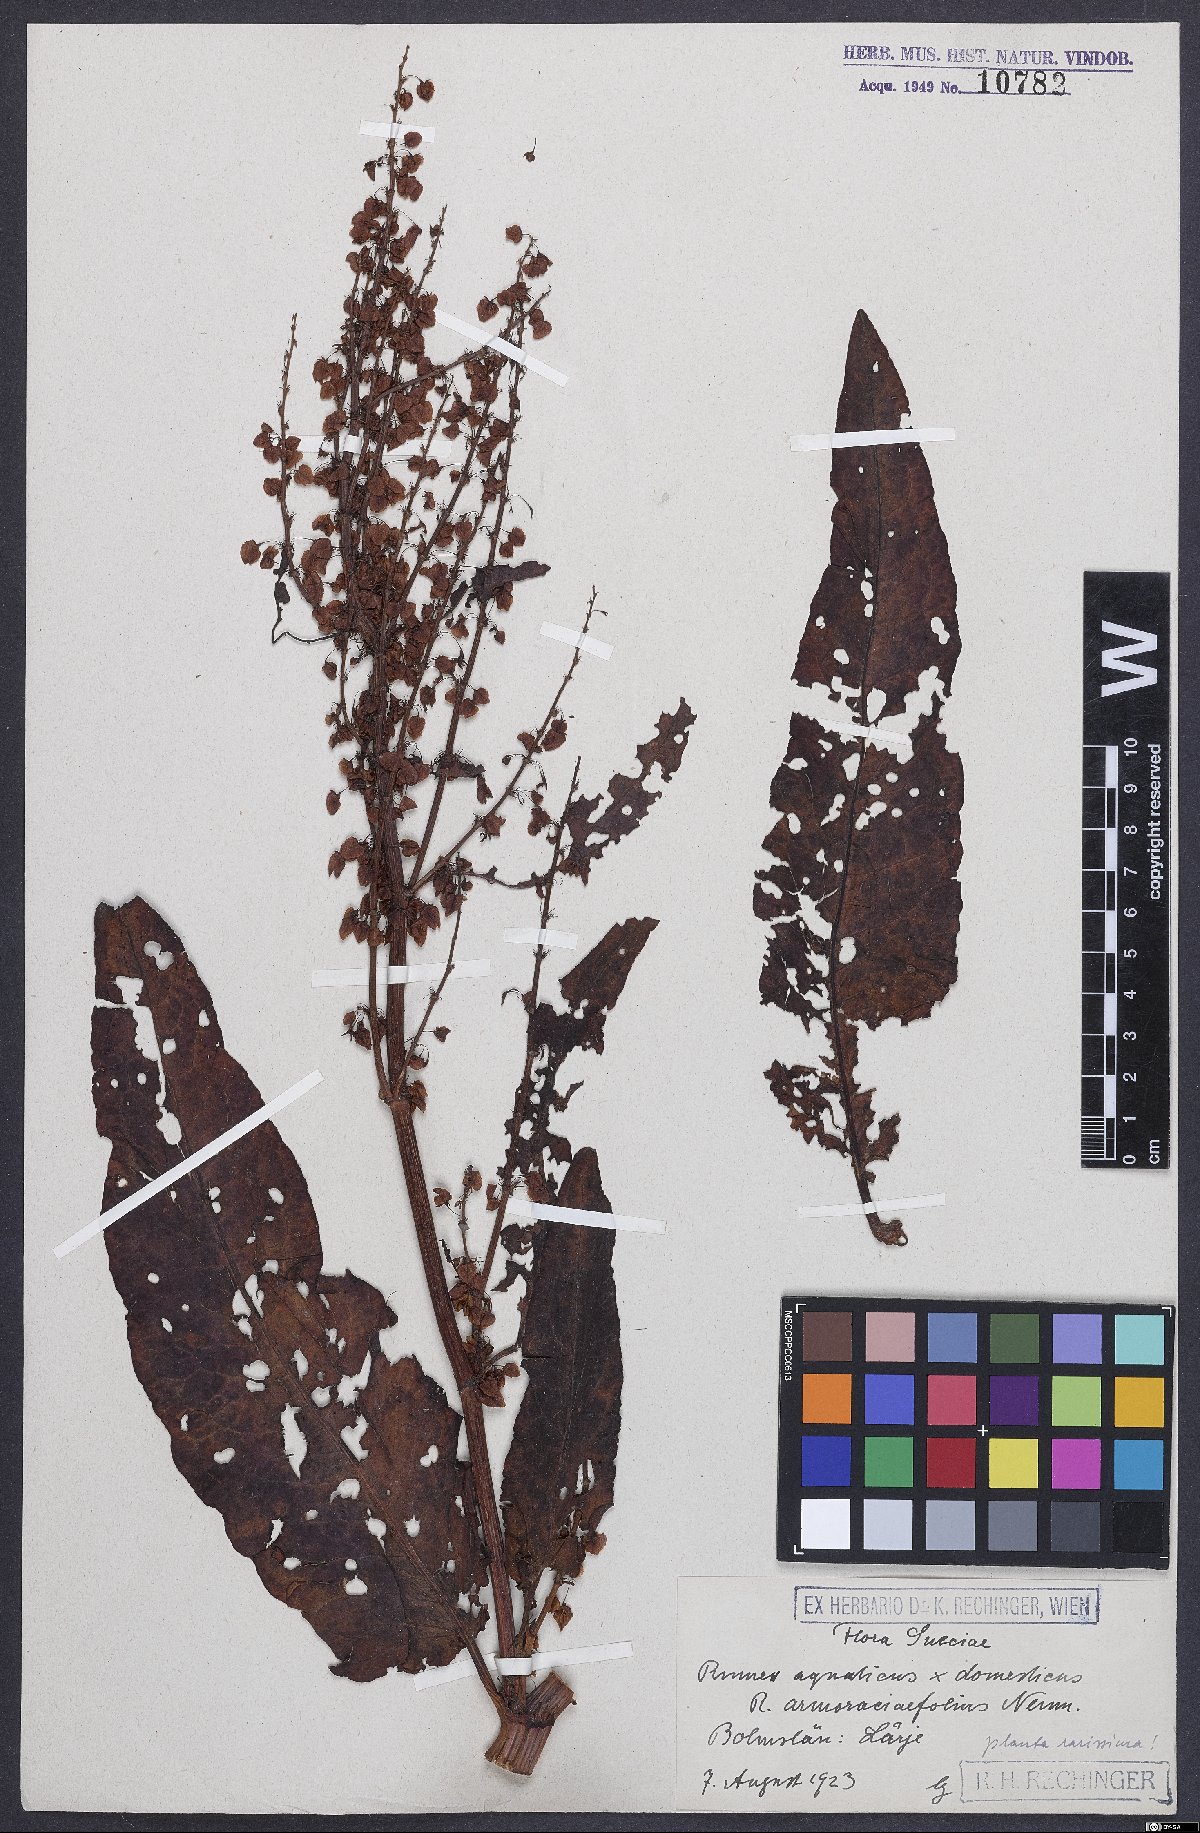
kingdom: Plantae
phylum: Tracheophyta
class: Magnoliopsida
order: Caryophyllales
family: Polygonaceae
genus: Rumex
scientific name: Rumex
